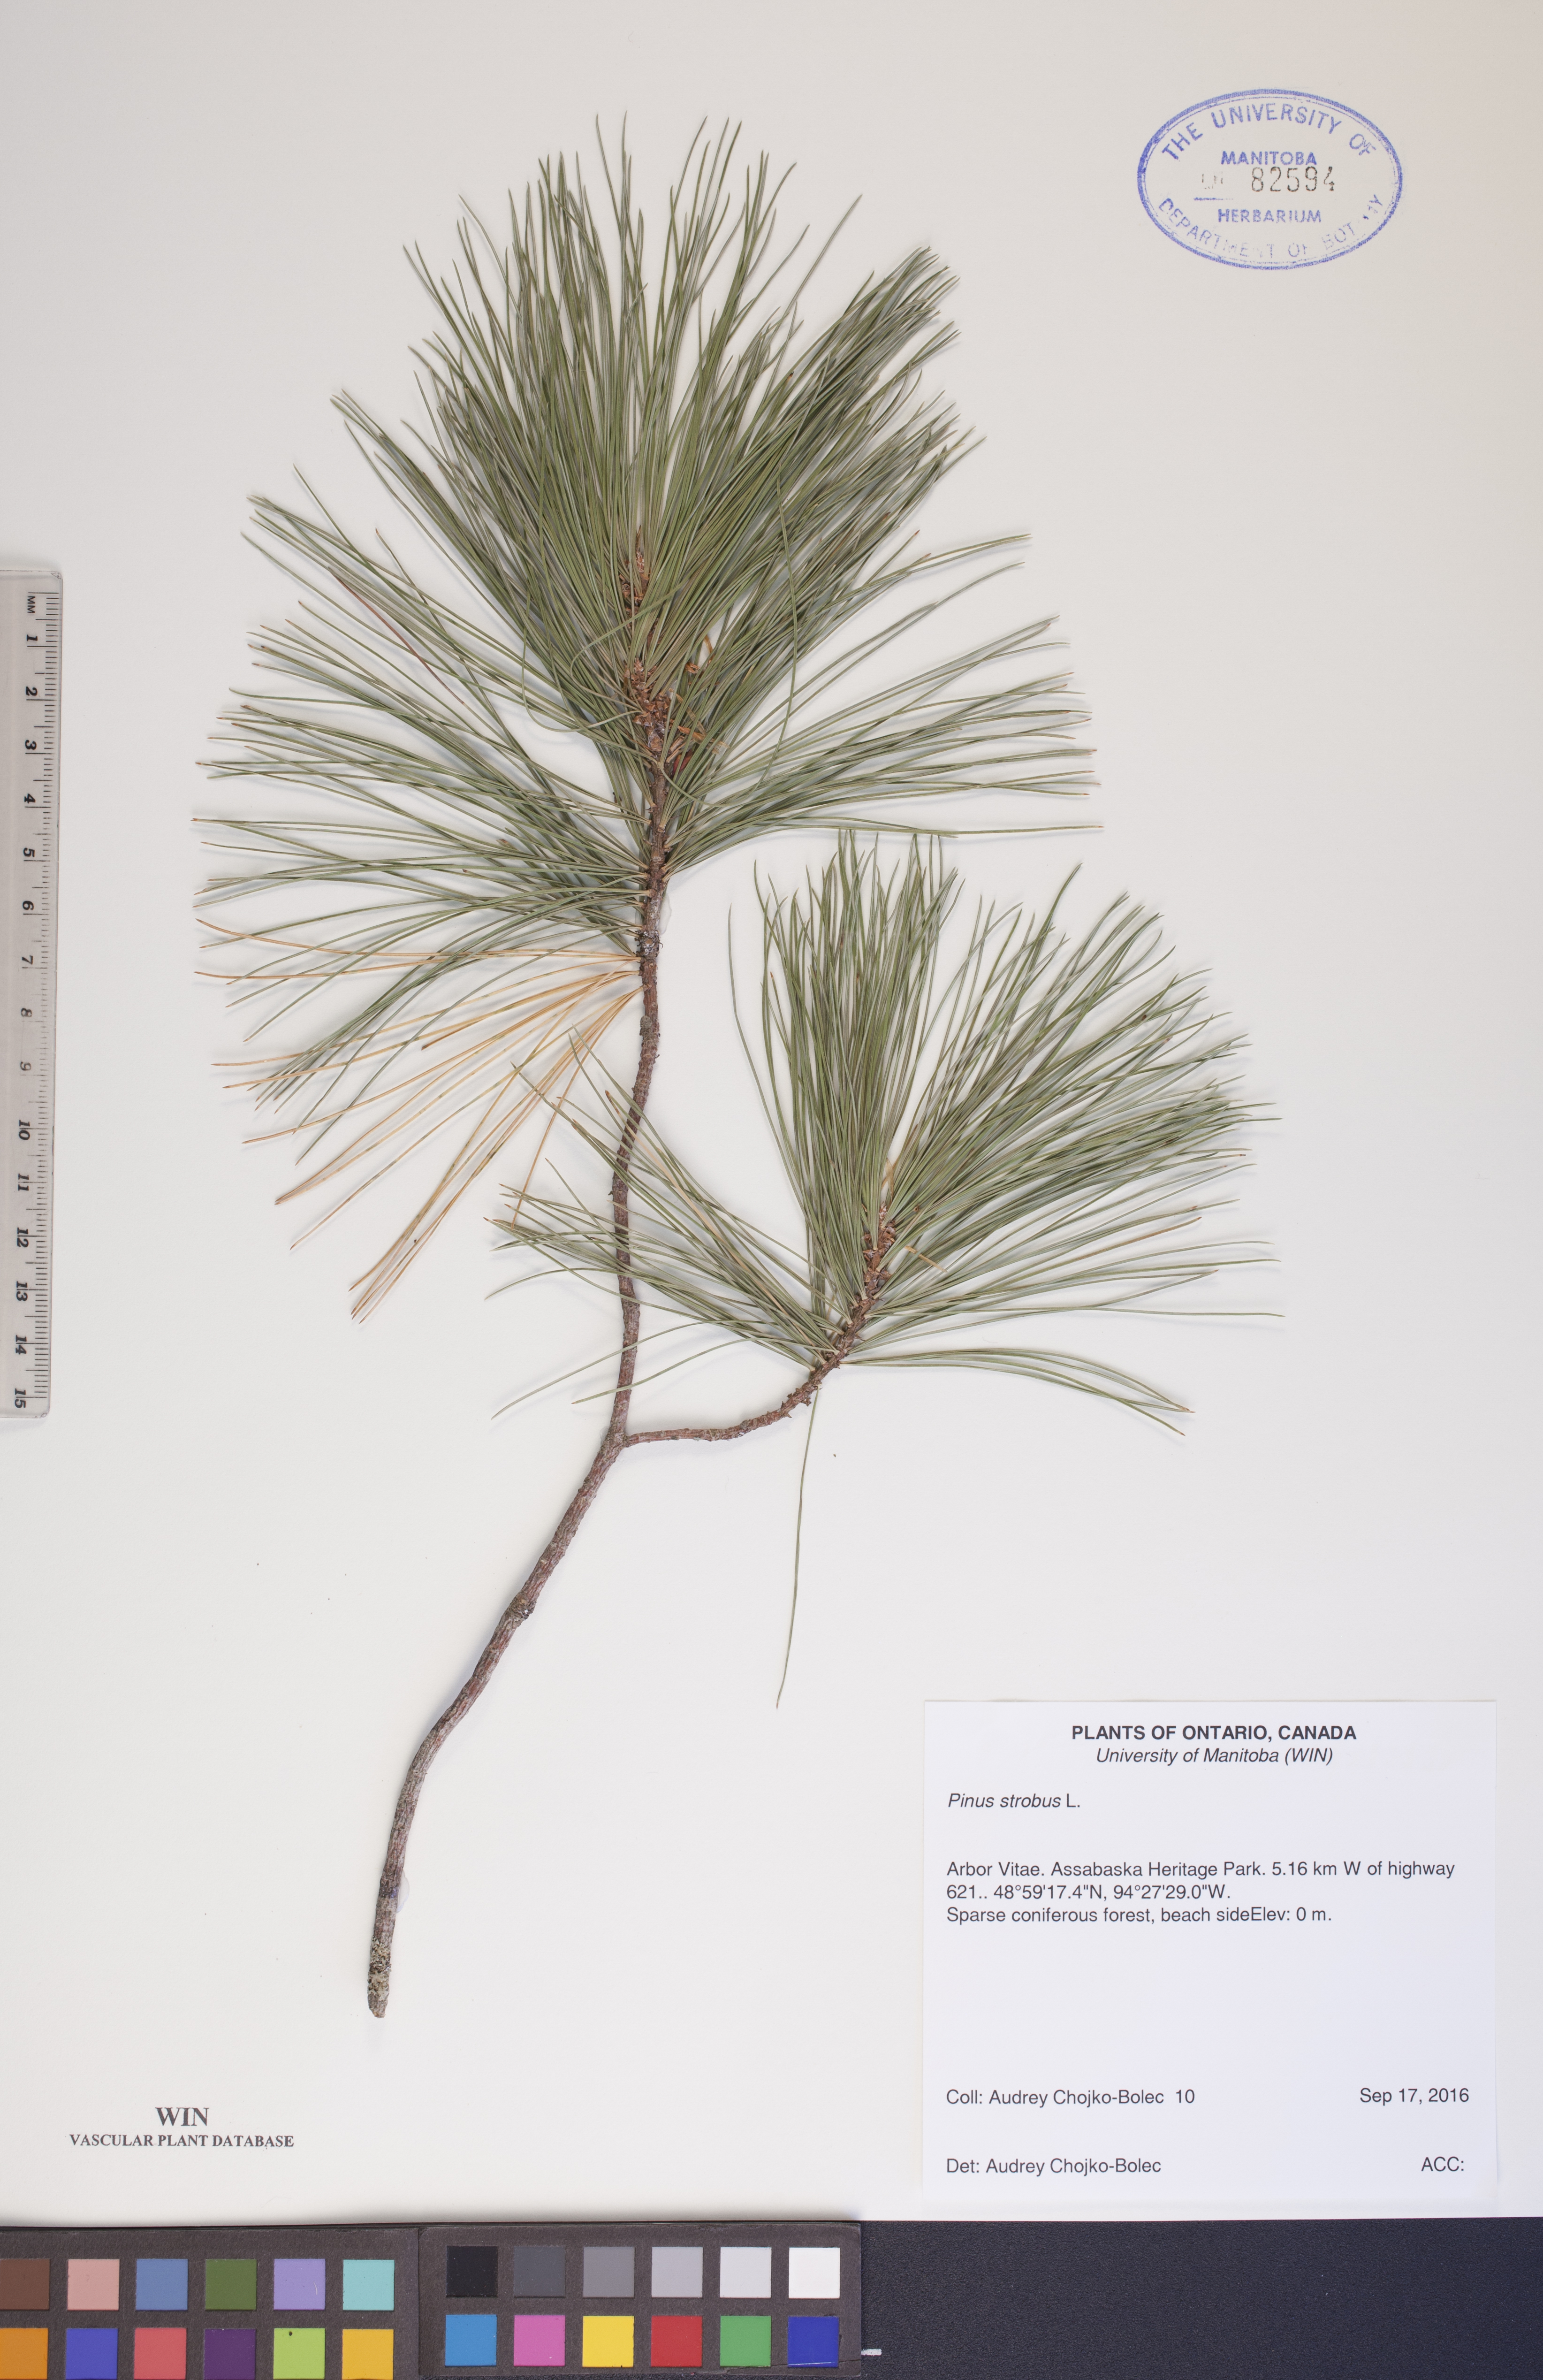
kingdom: Plantae
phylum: Tracheophyta
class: Pinopsida
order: Pinales
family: Pinaceae
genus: Pinus
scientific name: Pinus strobus
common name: Weymouth pine
